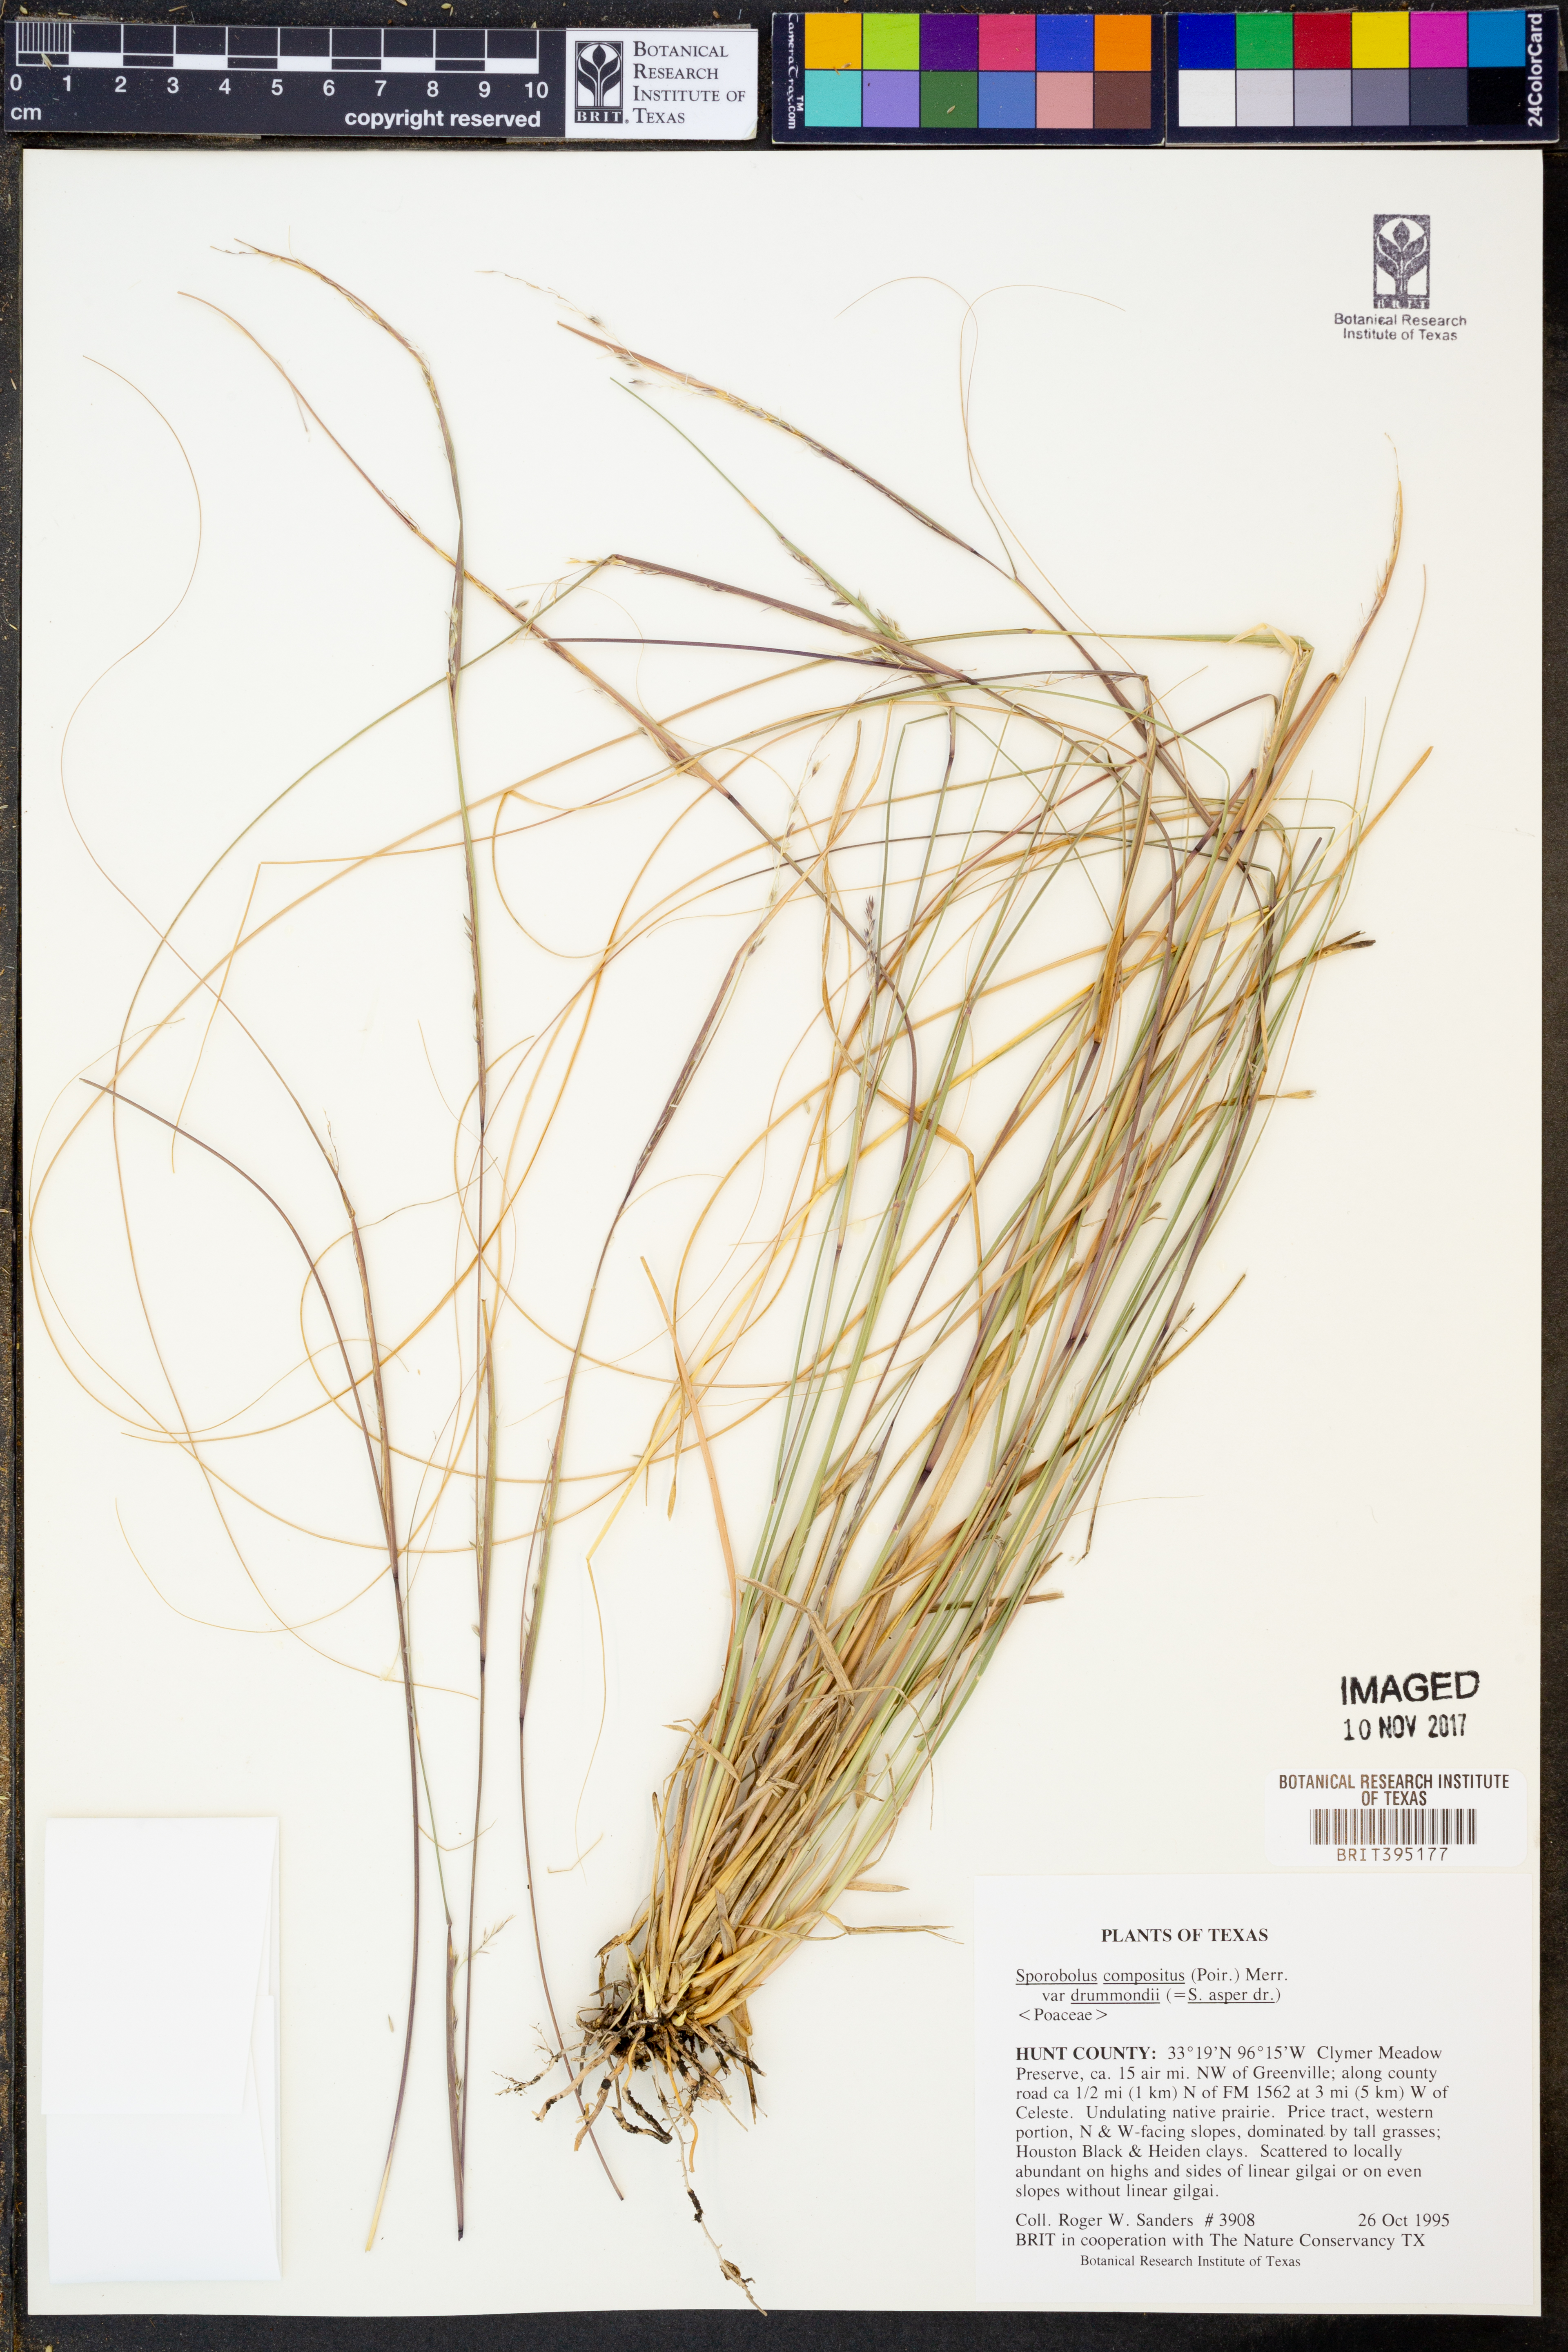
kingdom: Plantae
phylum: Tracheophyta
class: Liliopsida
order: Poales
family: Poaceae
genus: Sporobolus
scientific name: Sporobolus compositus
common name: Rough dropseed
